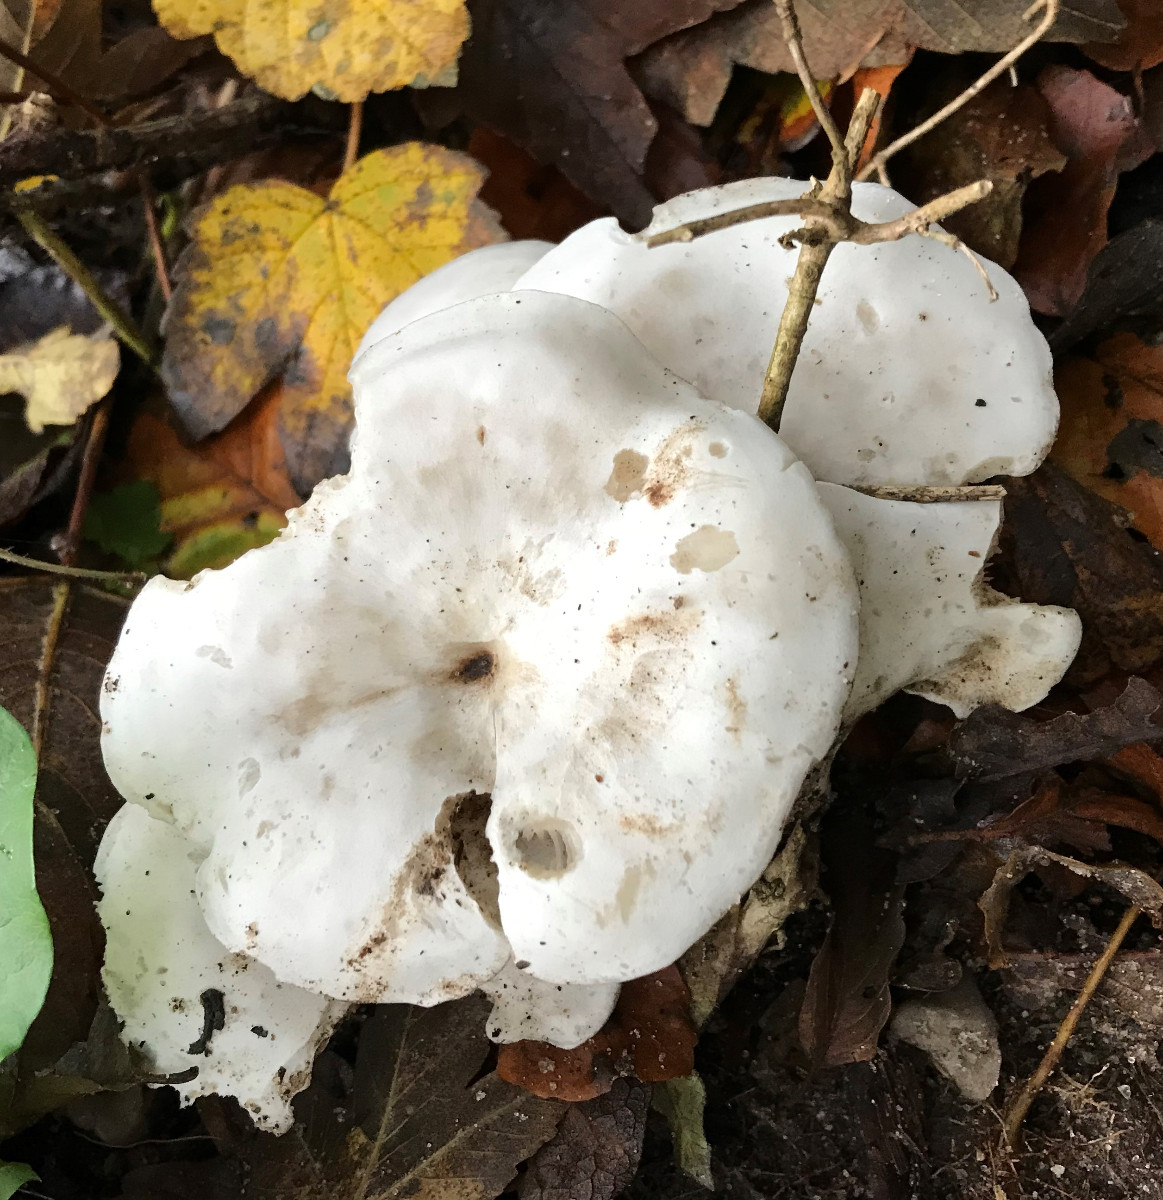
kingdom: Fungi
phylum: Basidiomycota
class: Agaricomycetes
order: Agaricales
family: Tricholomataceae
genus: Leucocybe
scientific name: Leucocybe connata
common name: knippe-tragthat
